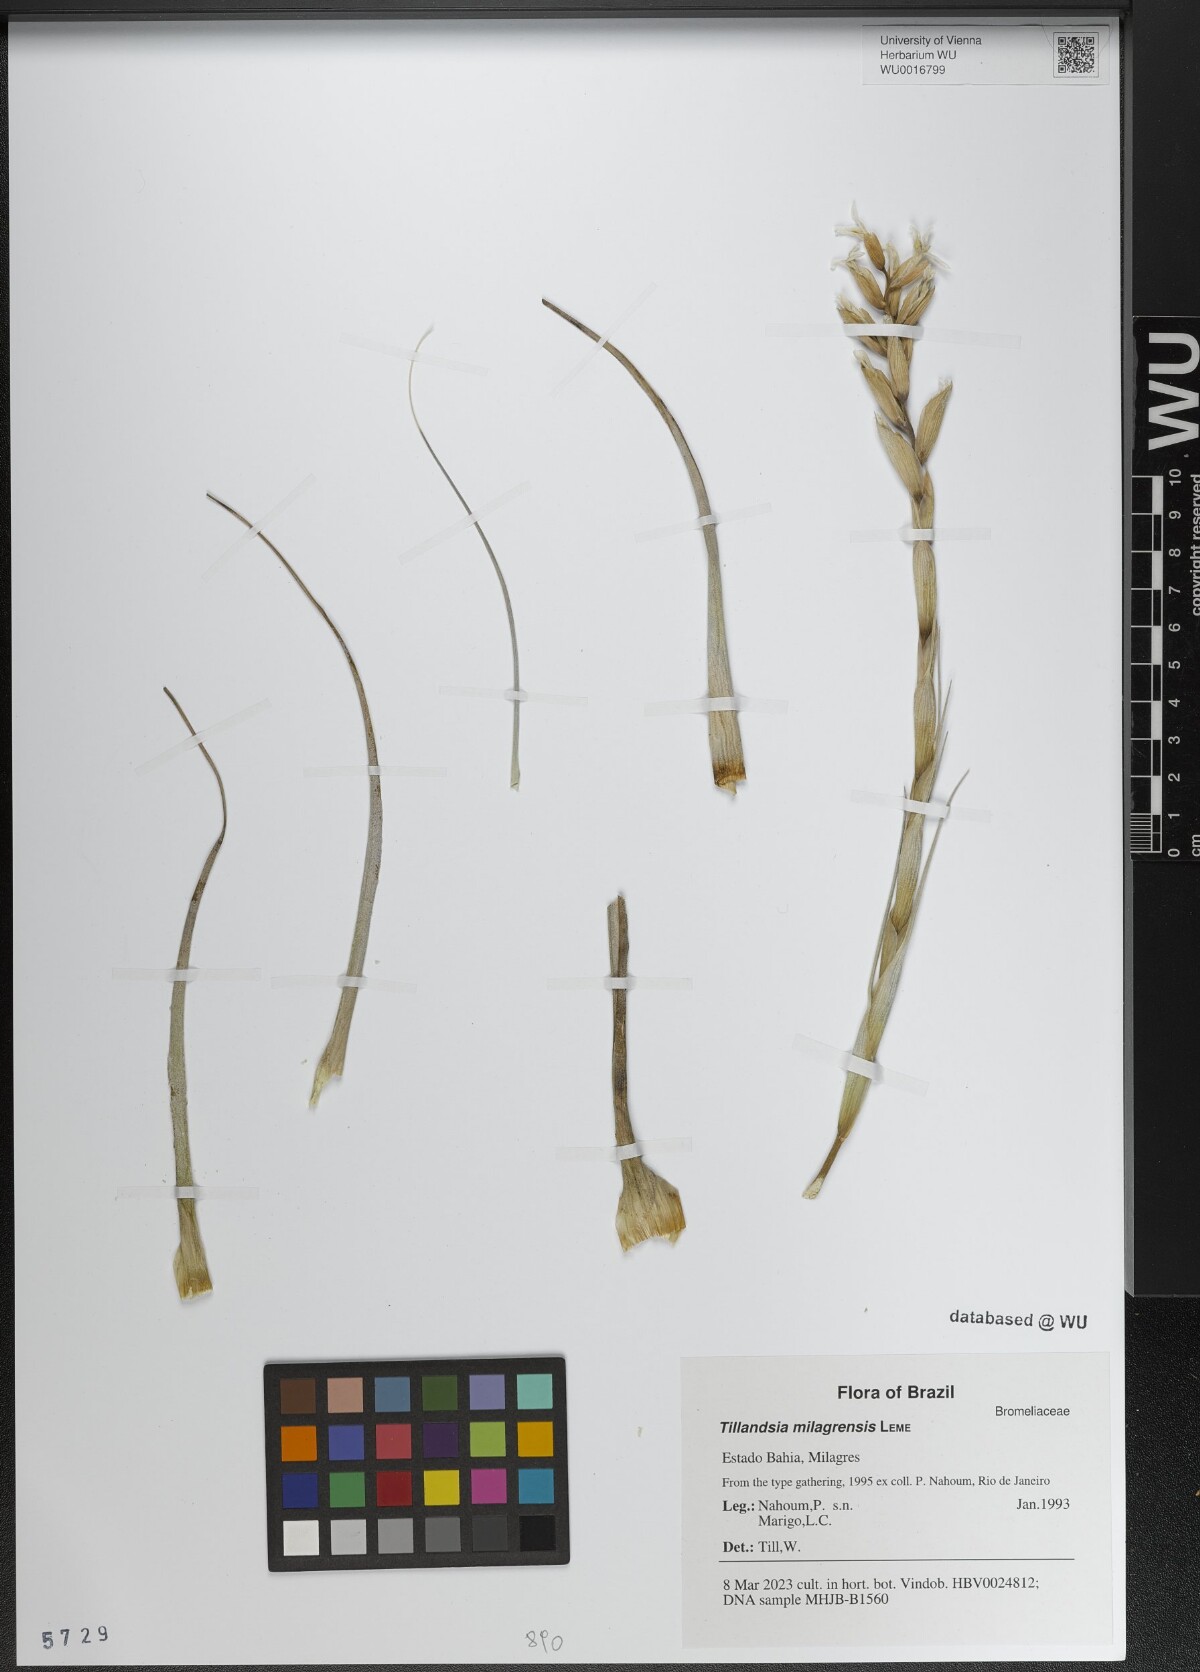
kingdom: Plantae
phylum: Tracheophyta
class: Liliopsida
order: Poales
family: Bromeliaceae
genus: Tillandsia
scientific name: Tillandsia milagrensis
